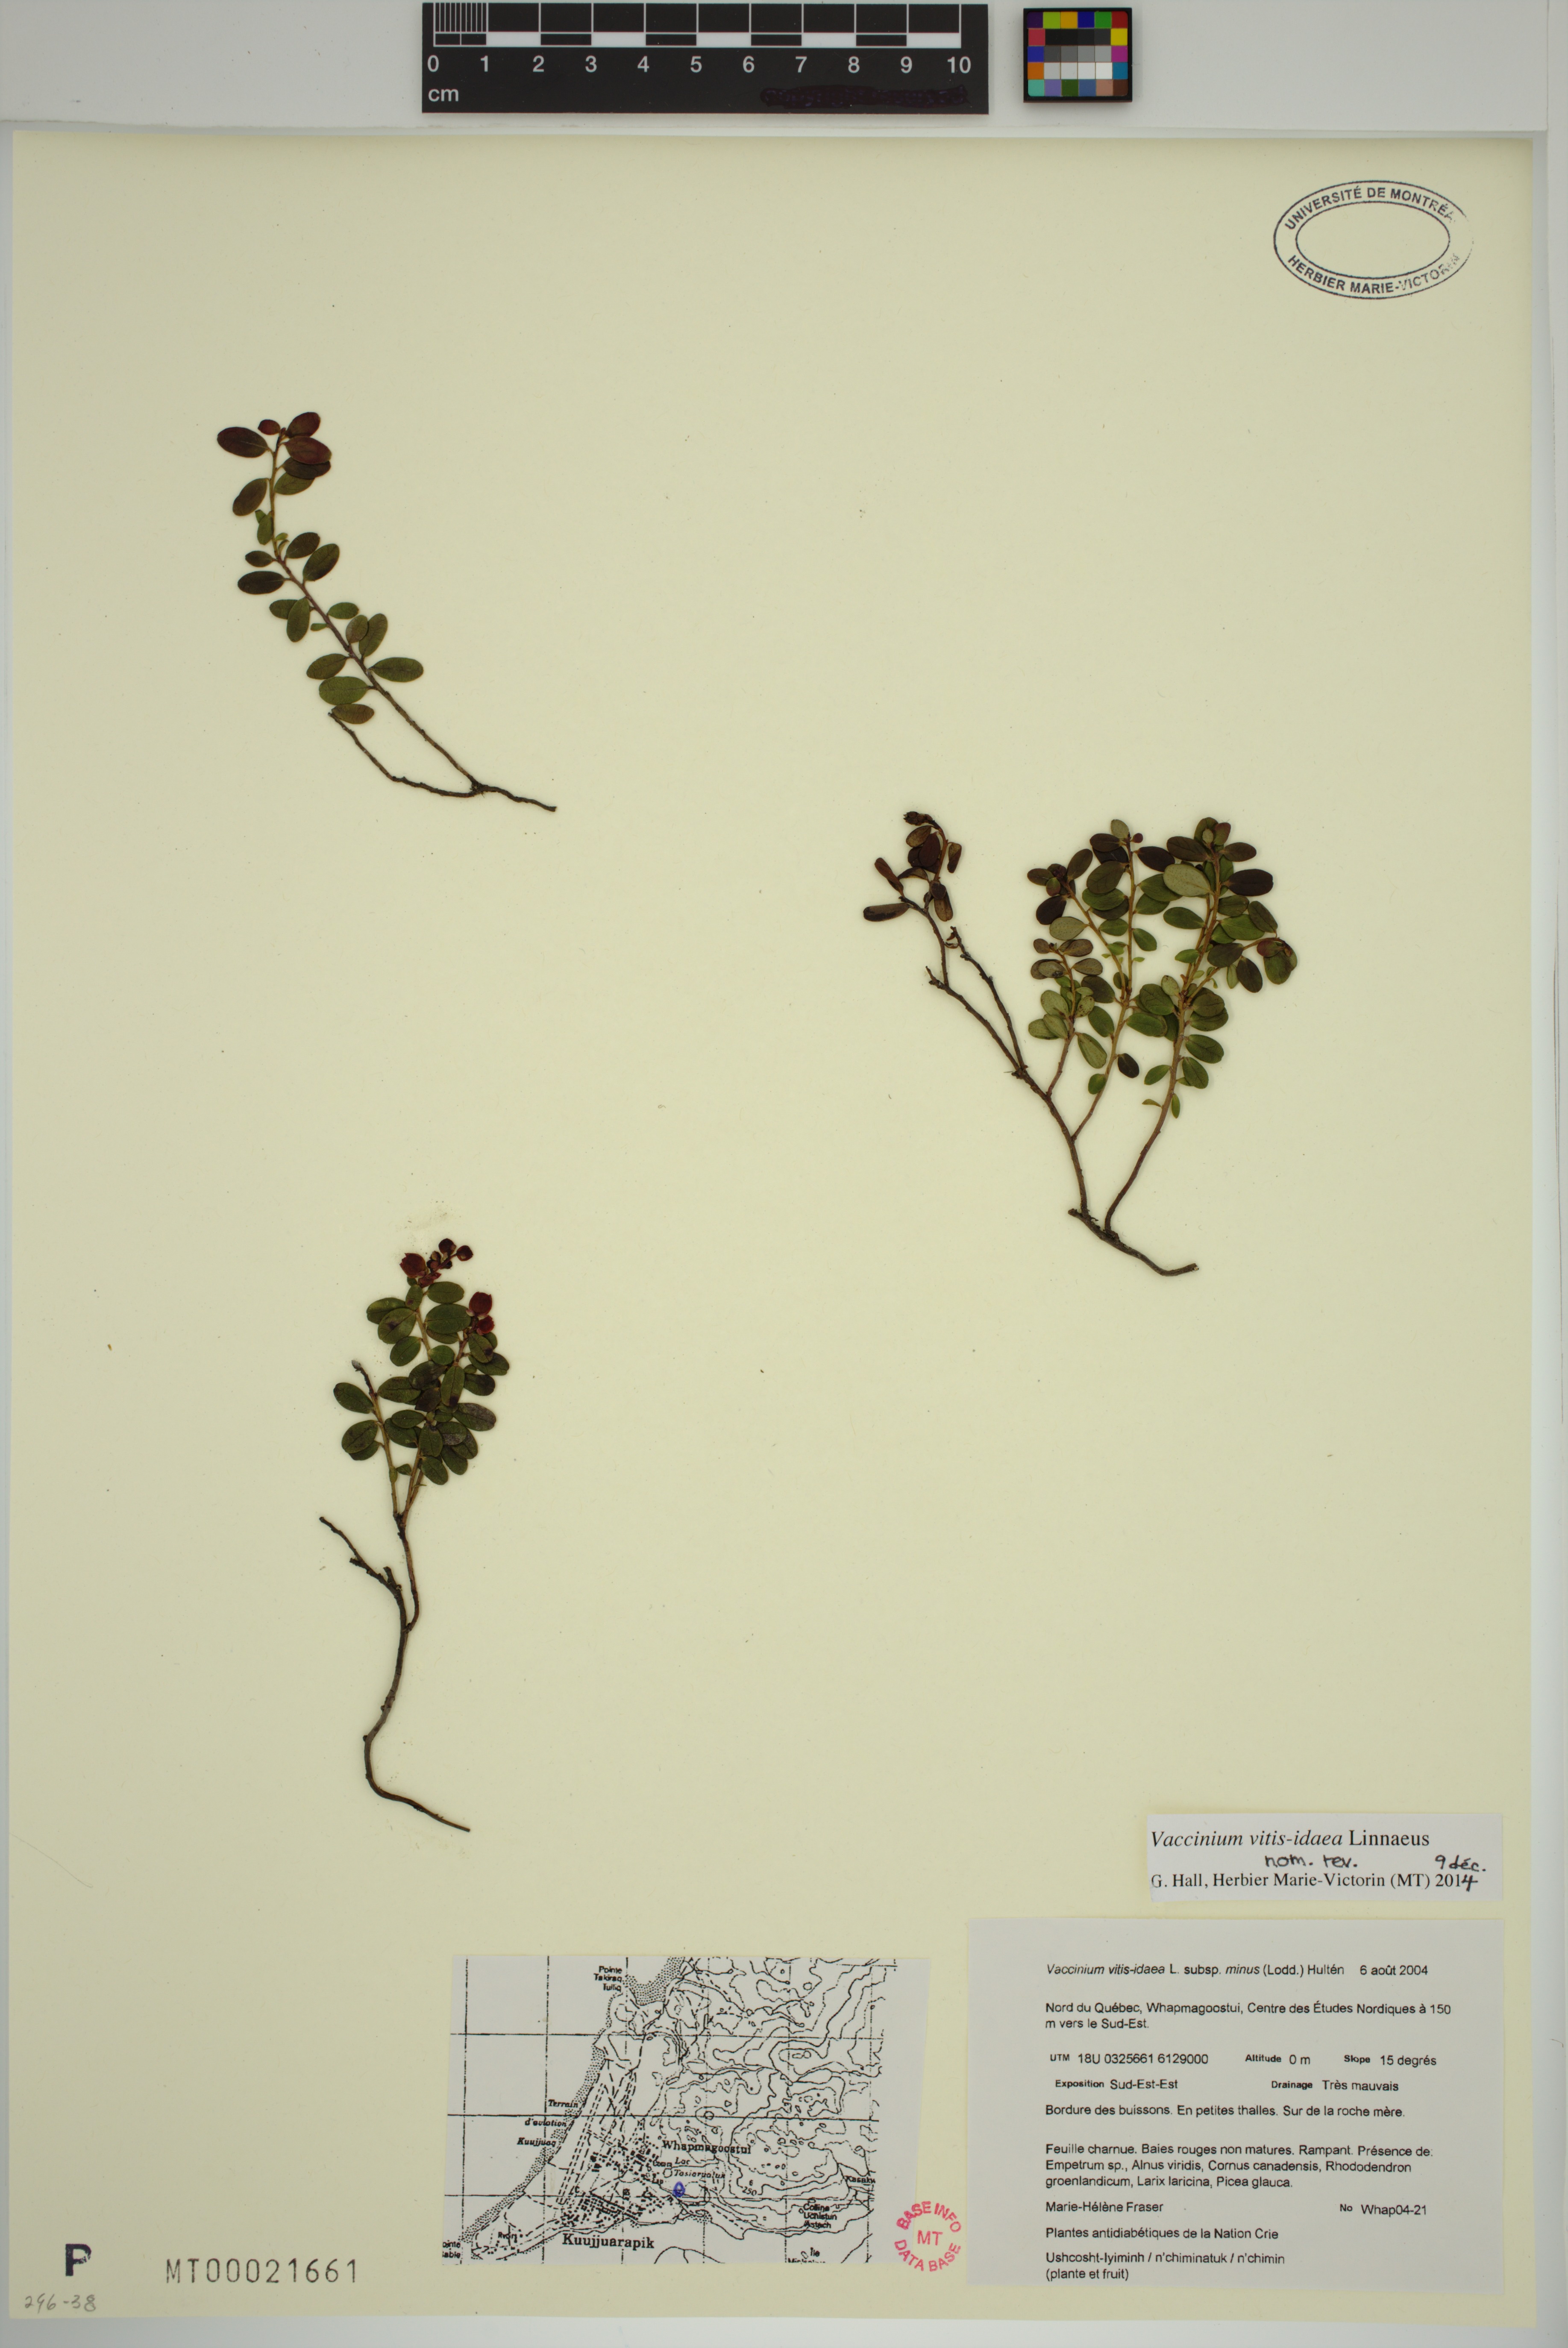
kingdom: Plantae
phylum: Tracheophyta
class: Magnoliopsida
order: Ericales
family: Ericaceae
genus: Vaccinium
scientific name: Vaccinium vitis-idaea
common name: Cowberry
